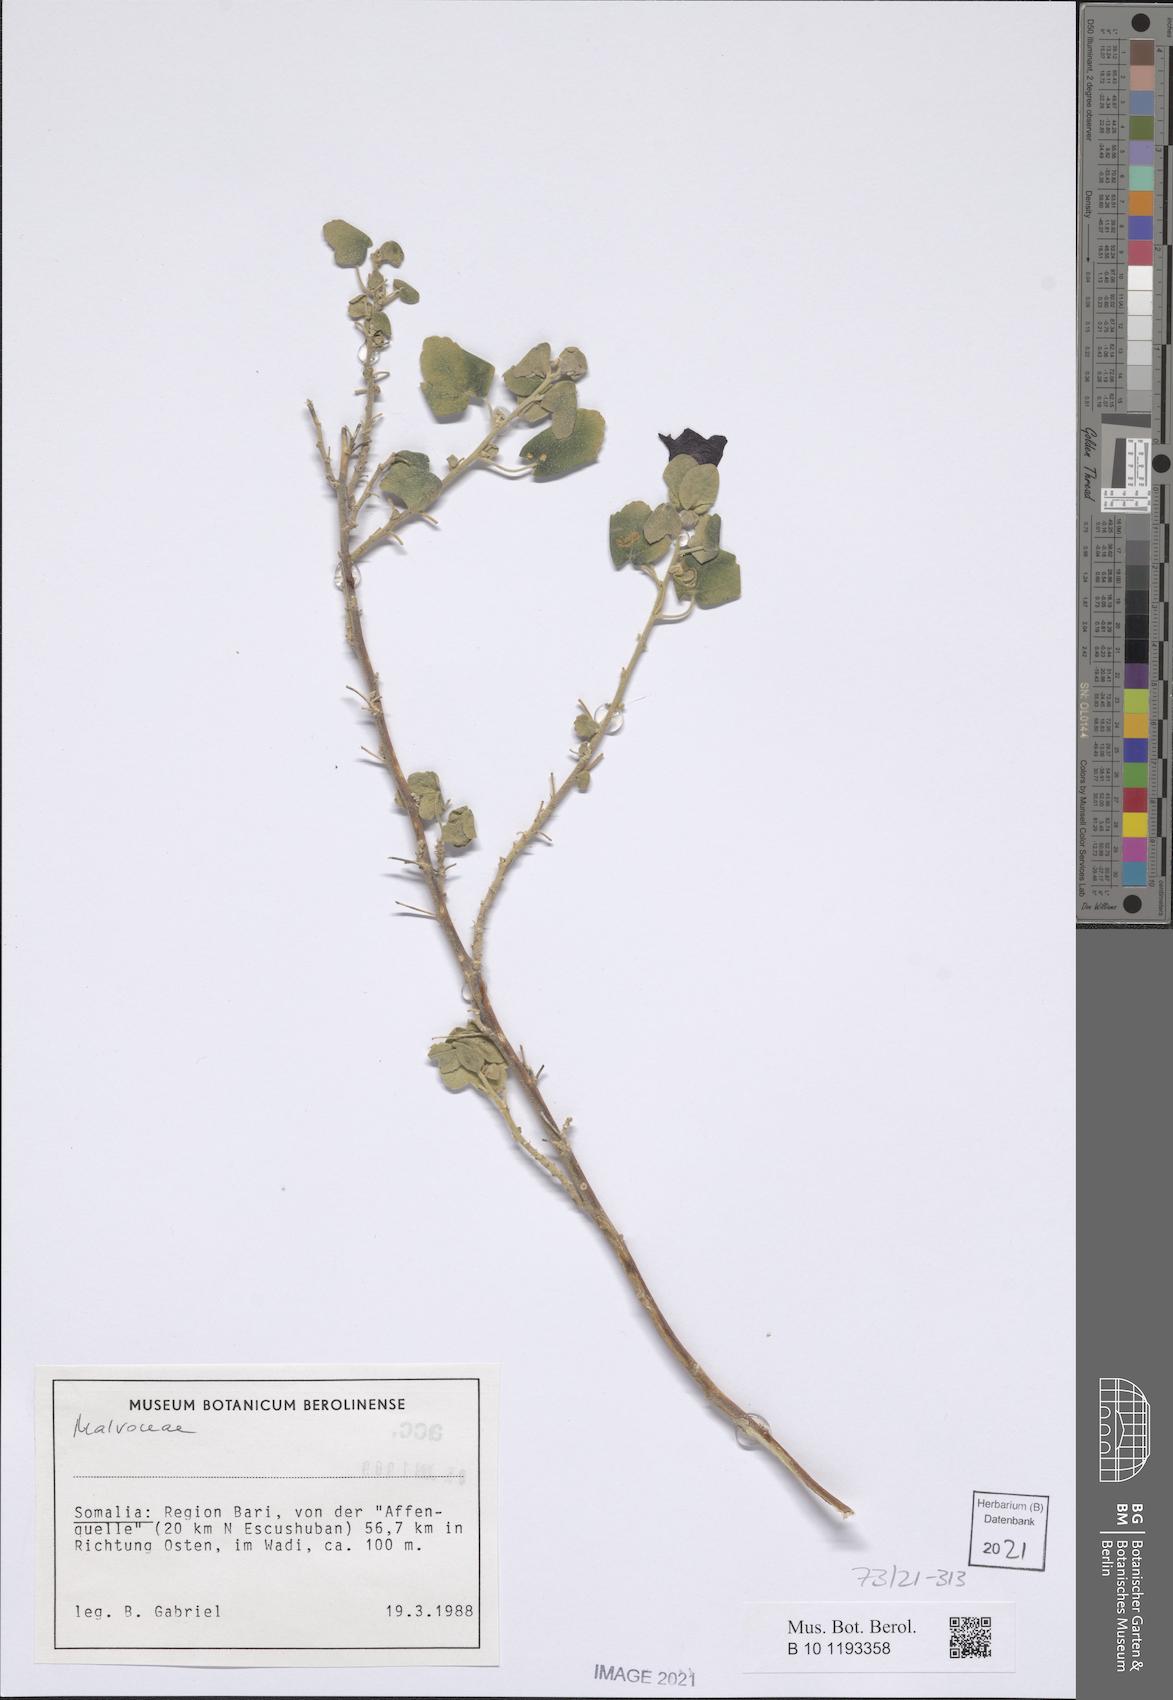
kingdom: Plantae
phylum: Tracheophyta
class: Magnoliopsida
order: Malvales
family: Malvaceae
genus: Senra
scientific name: Senra incana
